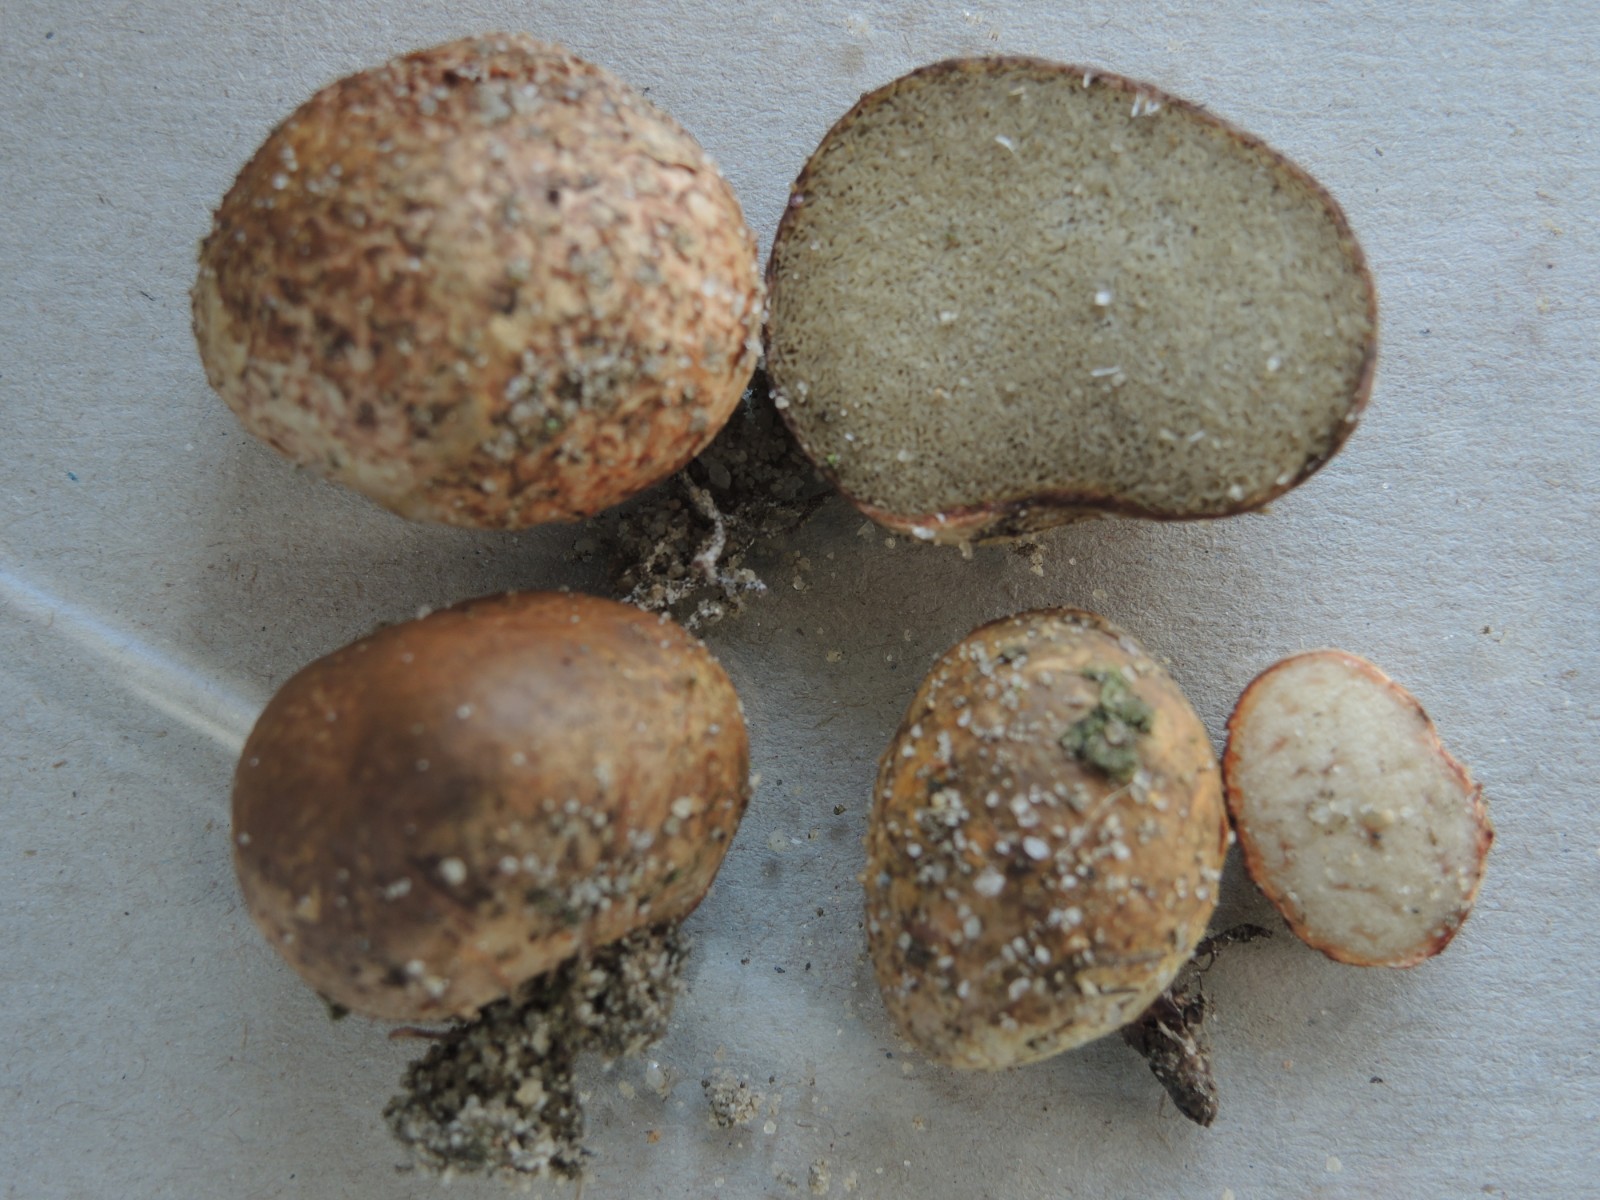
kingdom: Fungi
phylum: Basidiomycota
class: Agaricomycetes
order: Boletales
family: Rhizopogonaceae
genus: Rhizopogon
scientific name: Rhizopogon pseudoroseolus
